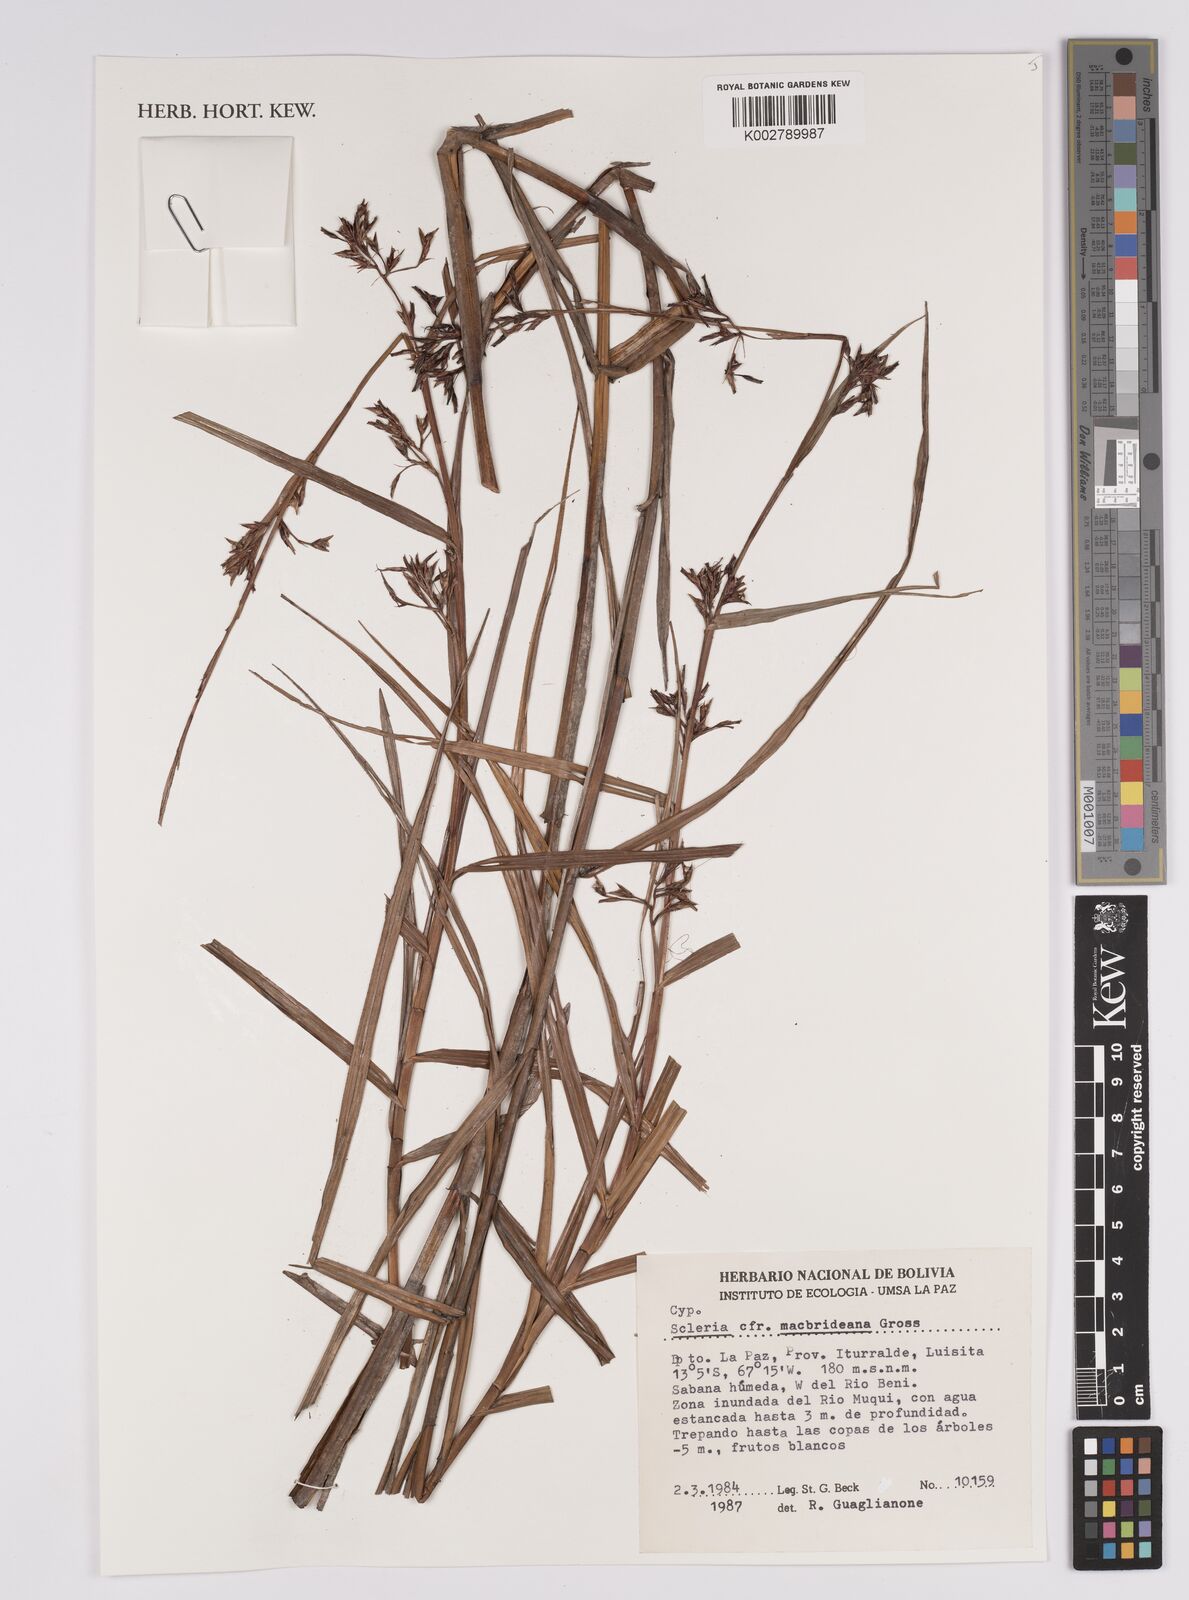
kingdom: Plantae
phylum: Tracheophyta
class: Liliopsida
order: Poales
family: Cyperaceae
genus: Scleria
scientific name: Scleria macbrideana
